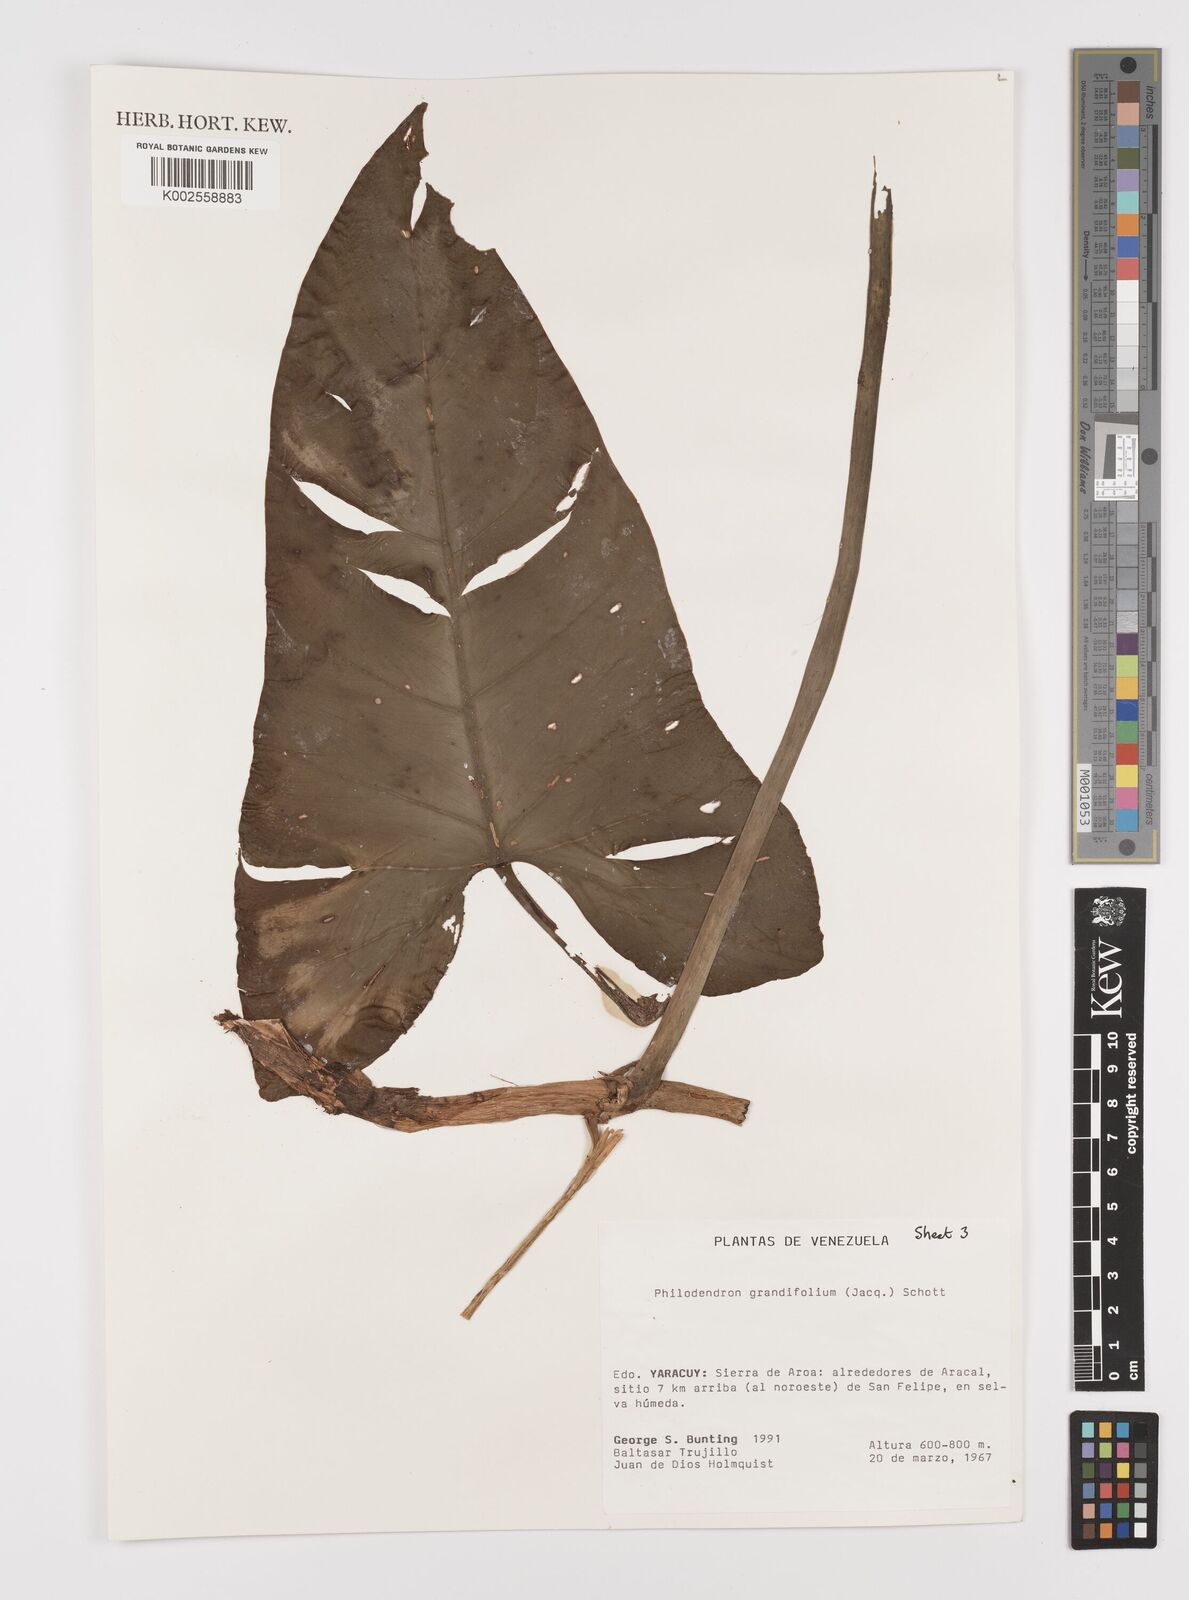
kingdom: Plantae
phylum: Tracheophyta
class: Liliopsida
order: Alismatales
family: Araceae
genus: Philodendron
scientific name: Philodendron grandifolium
